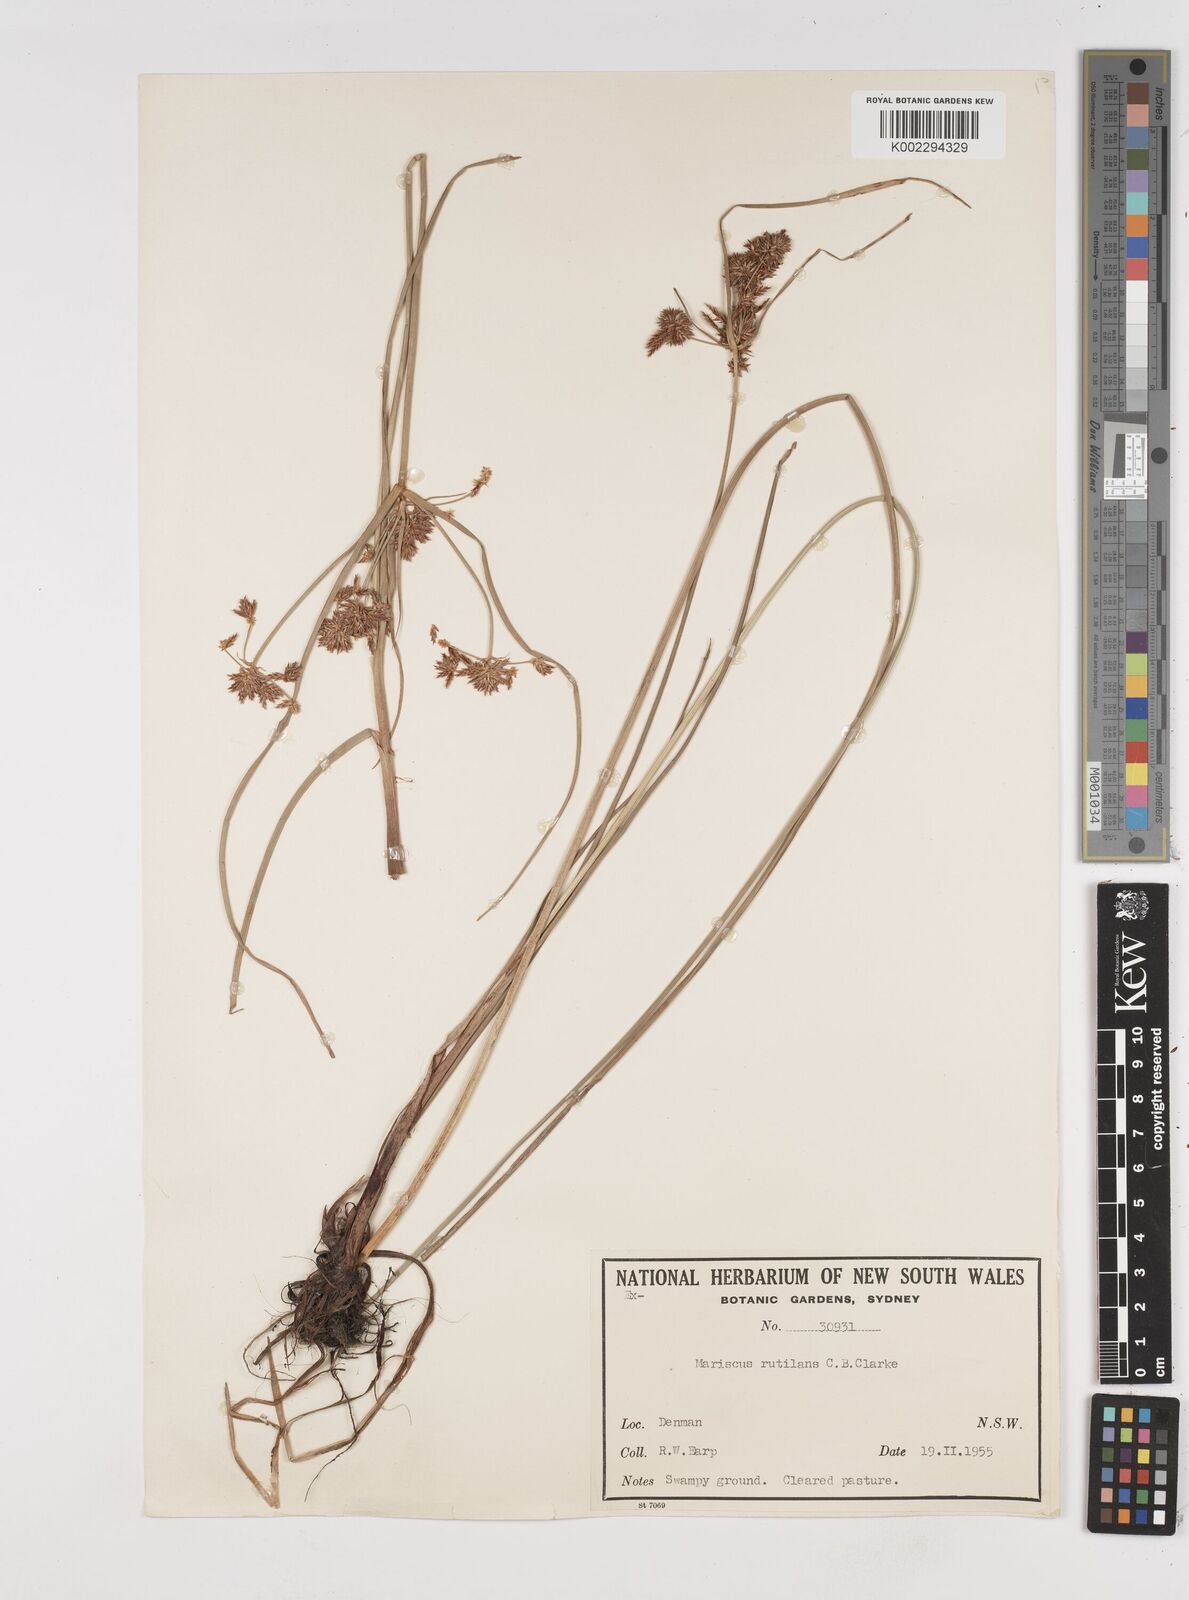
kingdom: Plantae
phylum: Tracheophyta
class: Liliopsida
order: Poales
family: Cyperaceae
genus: Cyperus
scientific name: Cyperus lhotskyanus
